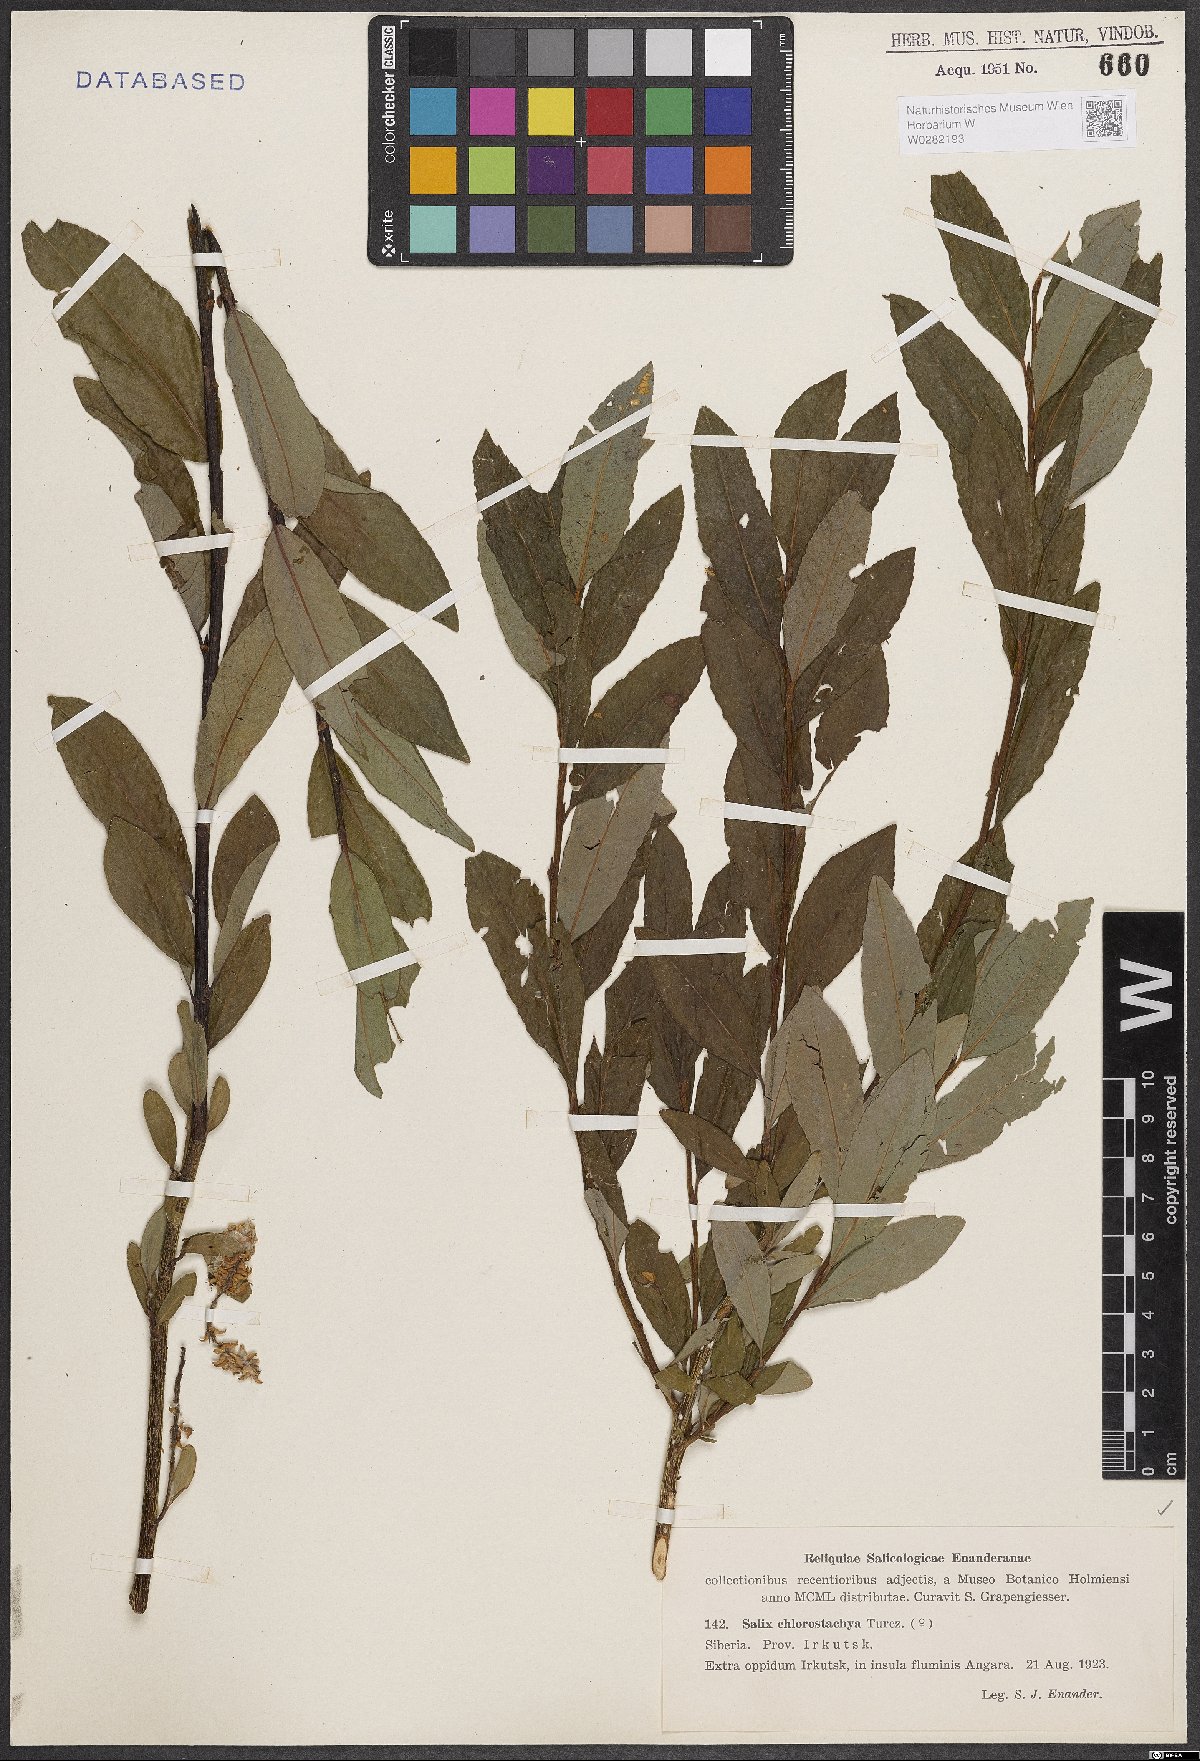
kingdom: Plantae
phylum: Tracheophyta
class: Magnoliopsida
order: Malpighiales
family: Salicaceae
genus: Salix
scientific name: Salix rhamnifolia
